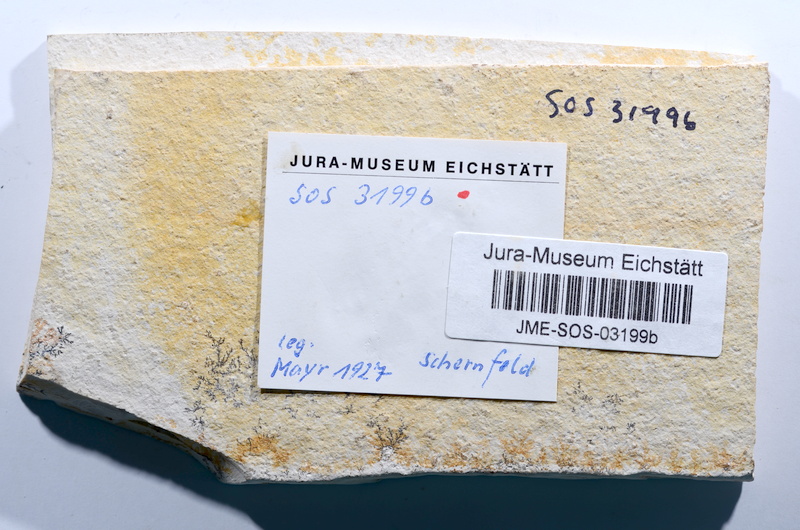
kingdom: Animalia
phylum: Chordata
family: Ascalaboidae
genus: Tharsis
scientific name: Tharsis dubius
